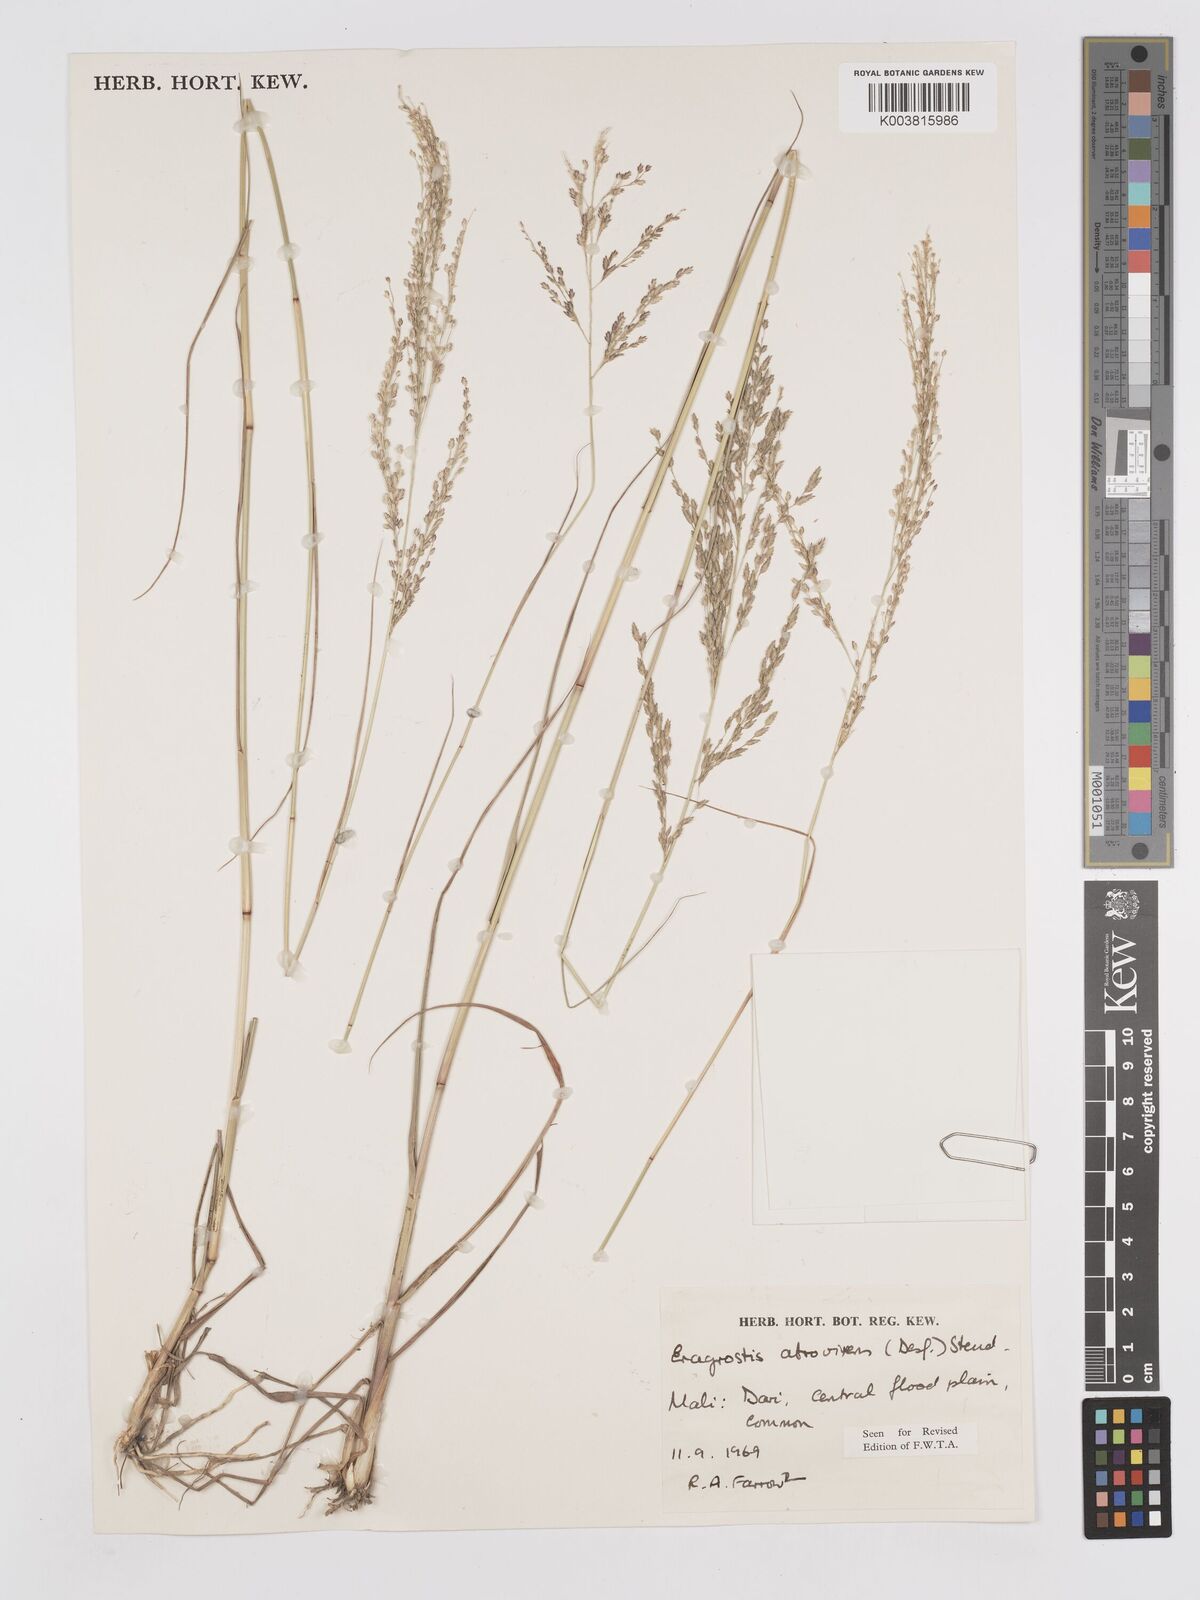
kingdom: Plantae
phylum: Tracheophyta
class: Liliopsida
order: Poales
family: Poaceae
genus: Eragrostis
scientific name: Eragrostis atrovirens
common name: Thalia lovegrass
